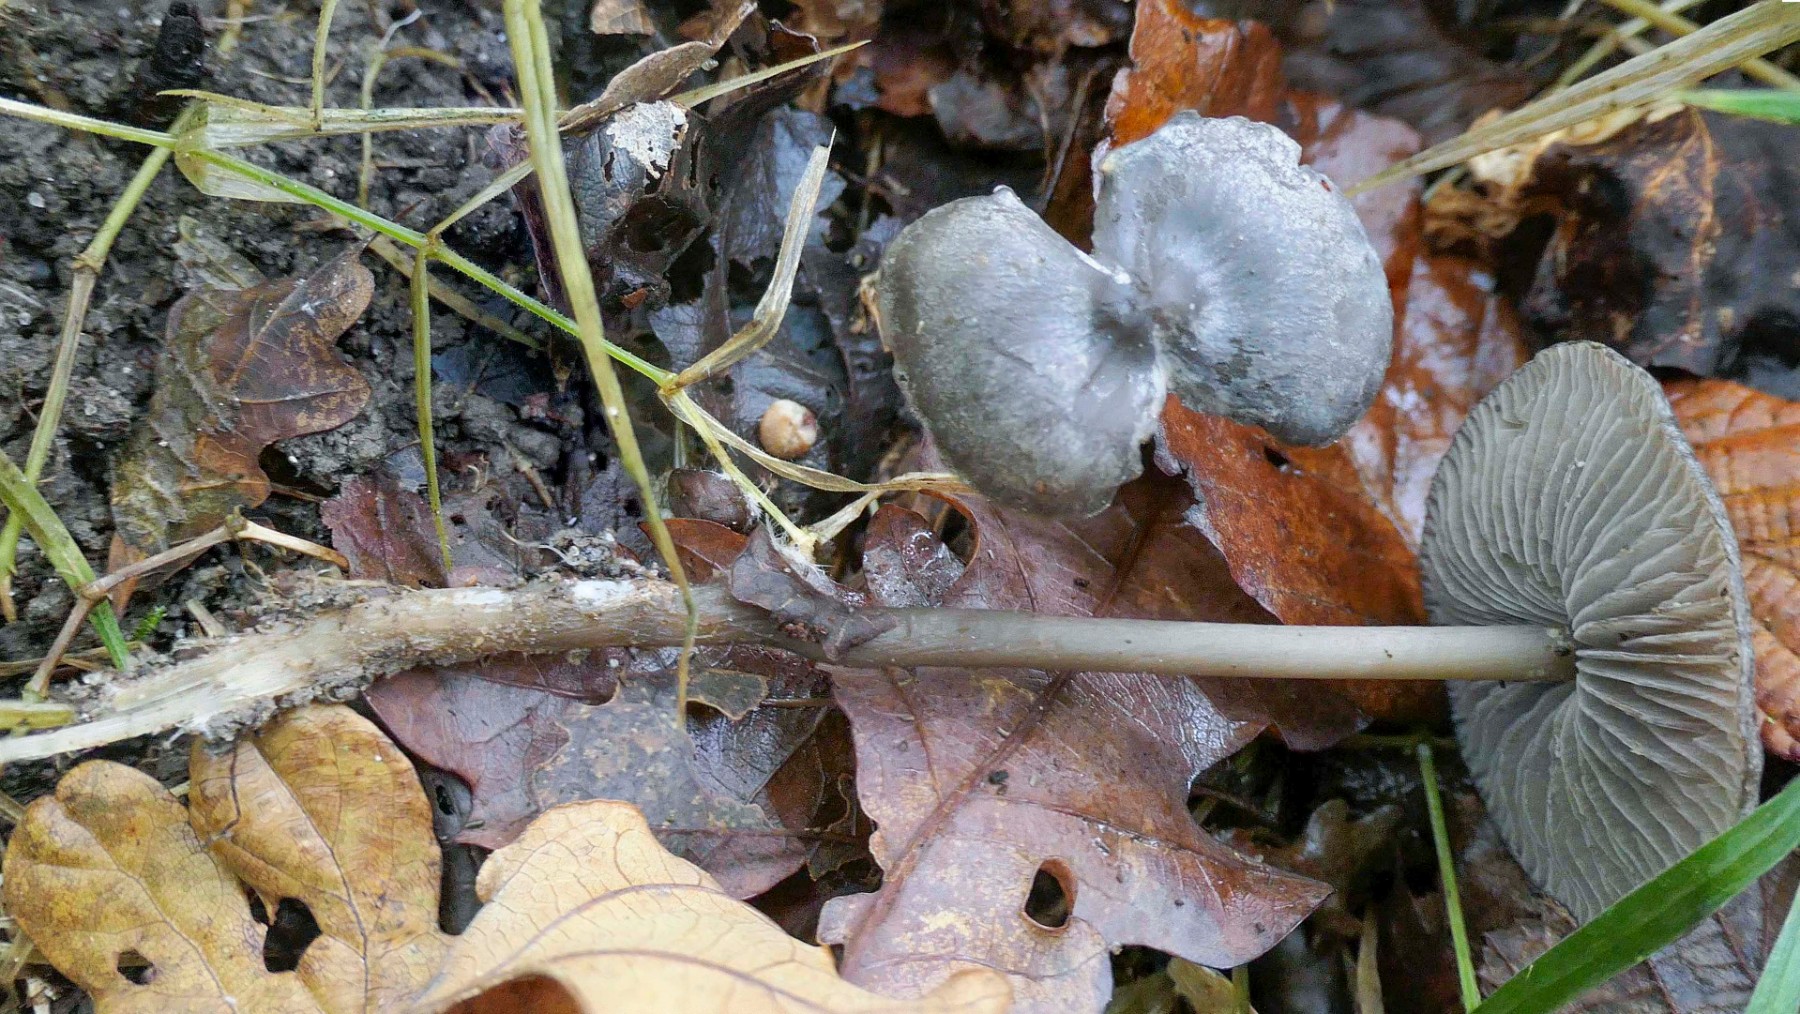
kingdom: Fungi
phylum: Basidiomycota
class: Agaricomycetes
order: Agaricales
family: Lyophyllaceae
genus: Tephrocybe
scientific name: Tephrocybe rancida
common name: mel-gråblad
